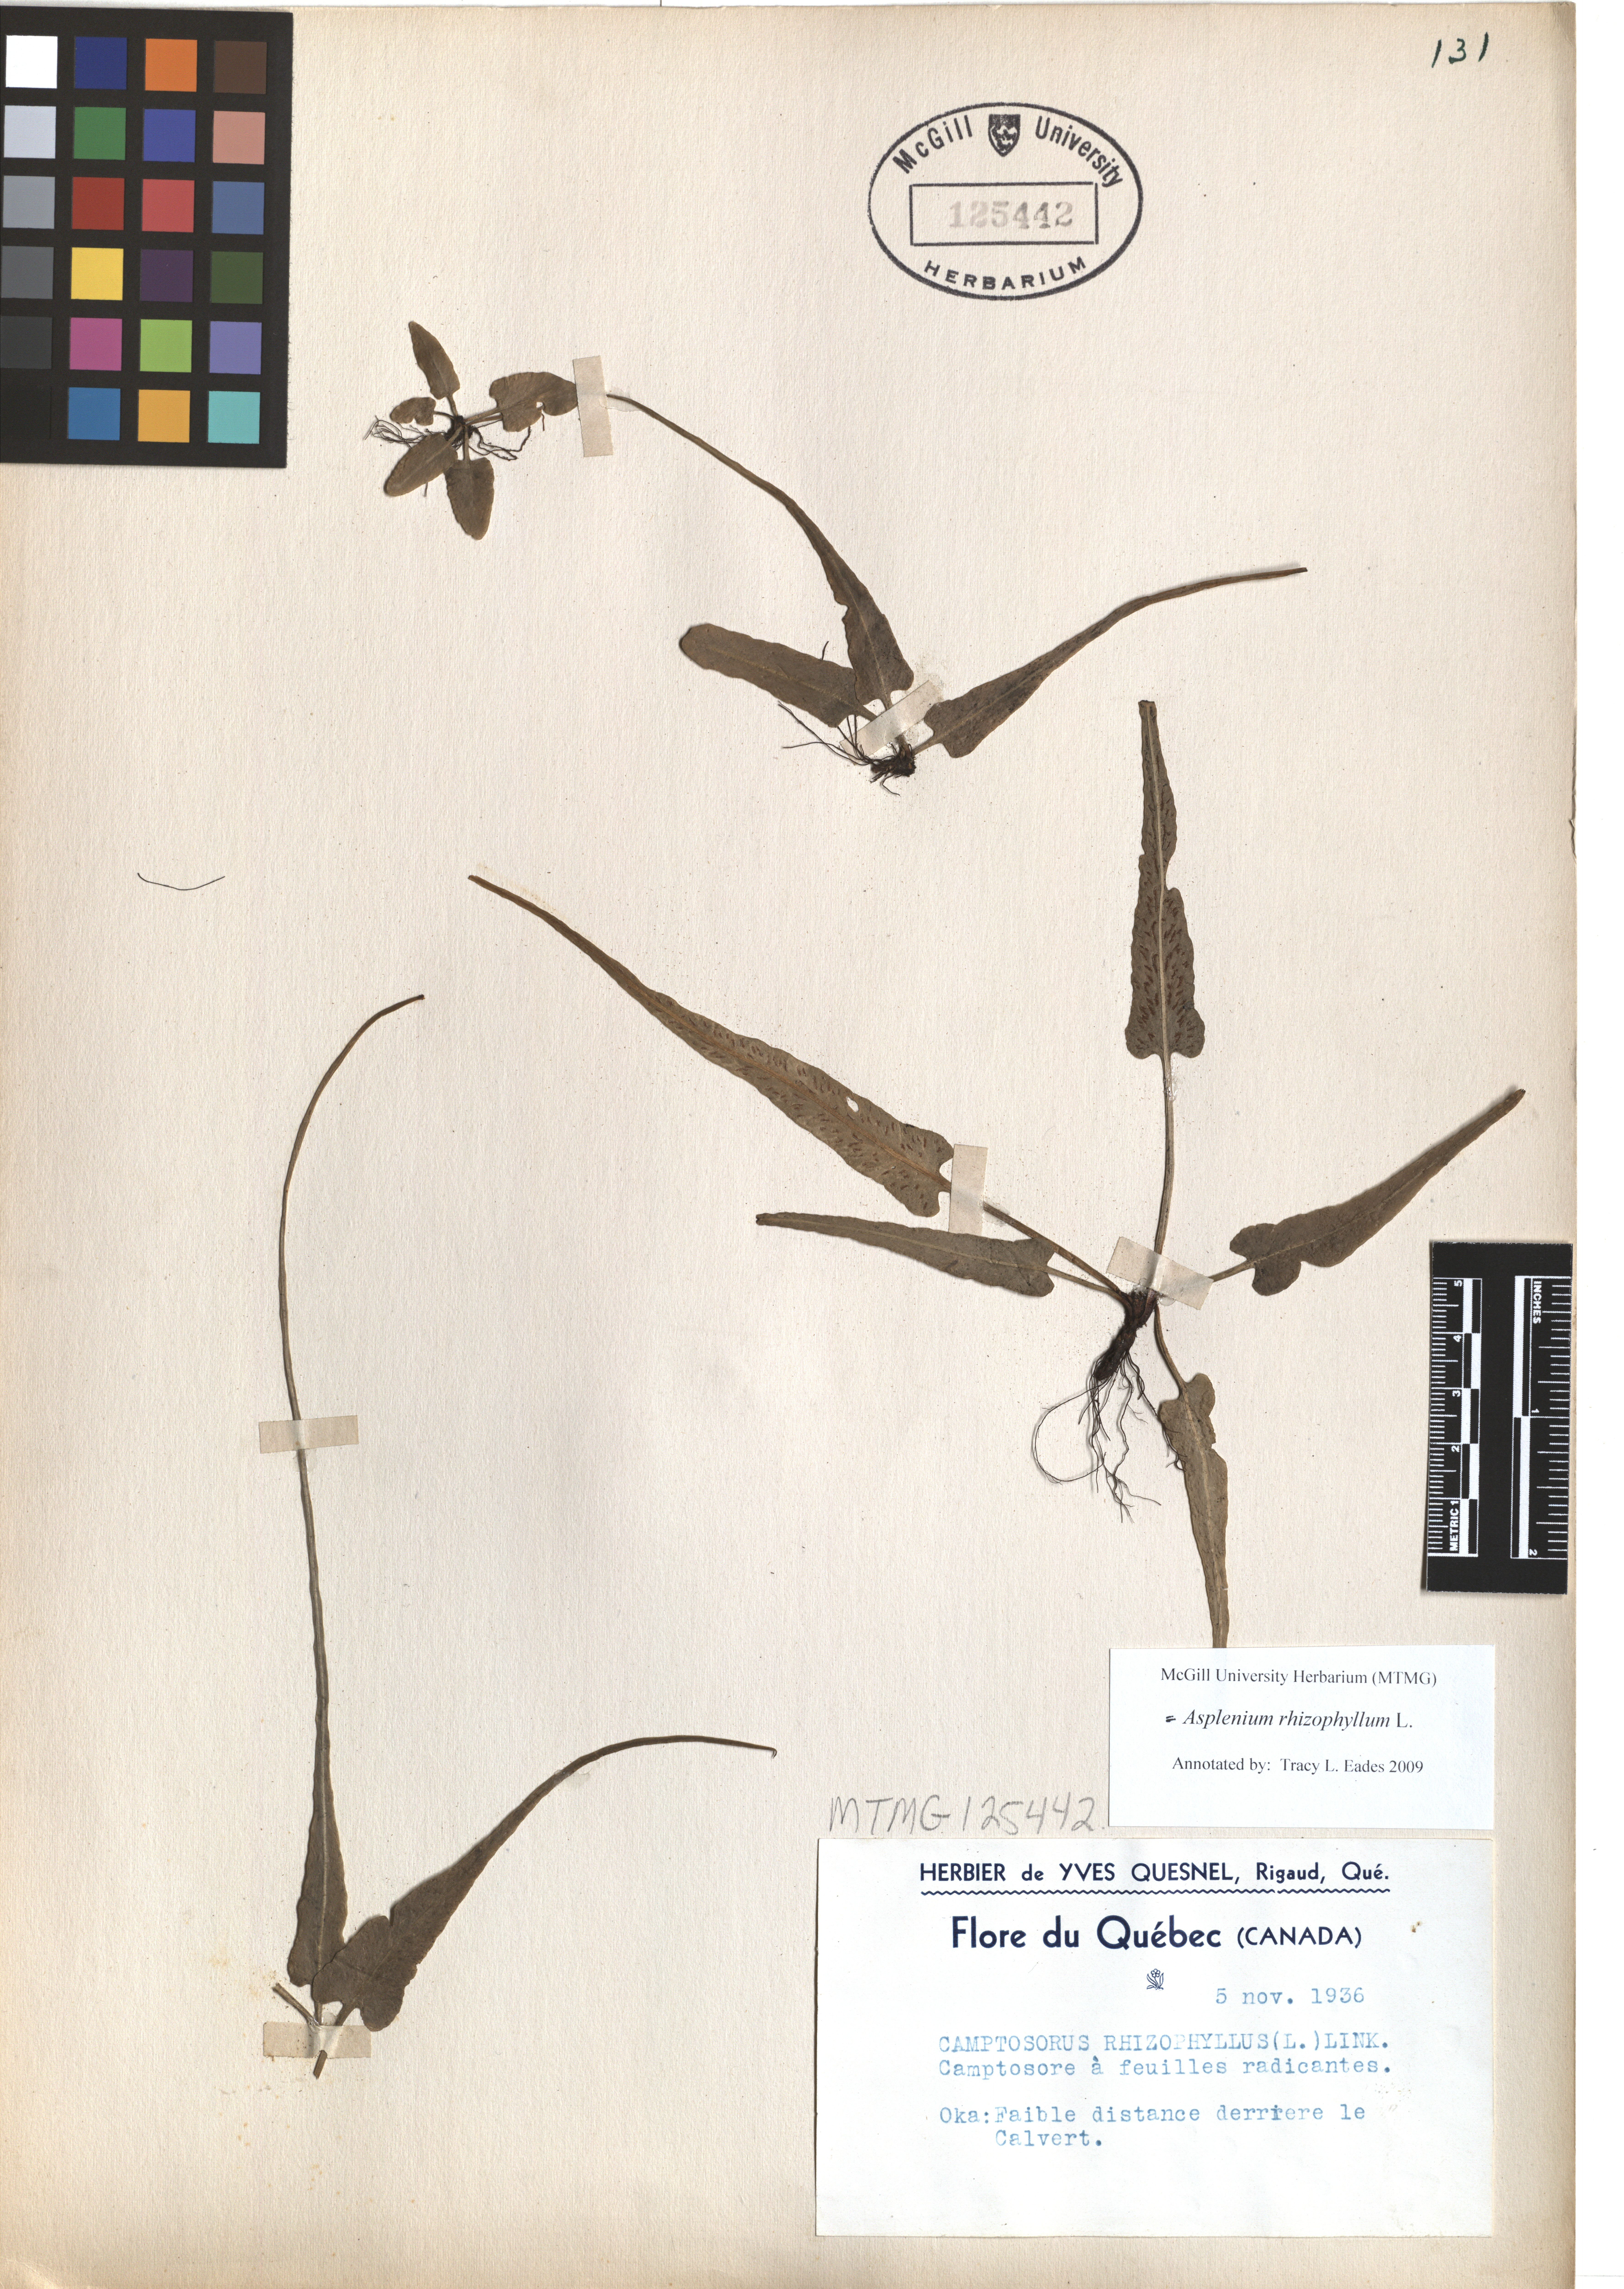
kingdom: Plantae
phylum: Tracheophyta
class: Polypodiopsida
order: Polypodiales
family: Aspleniaceae
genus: Asplenium
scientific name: Asplenium radicans
